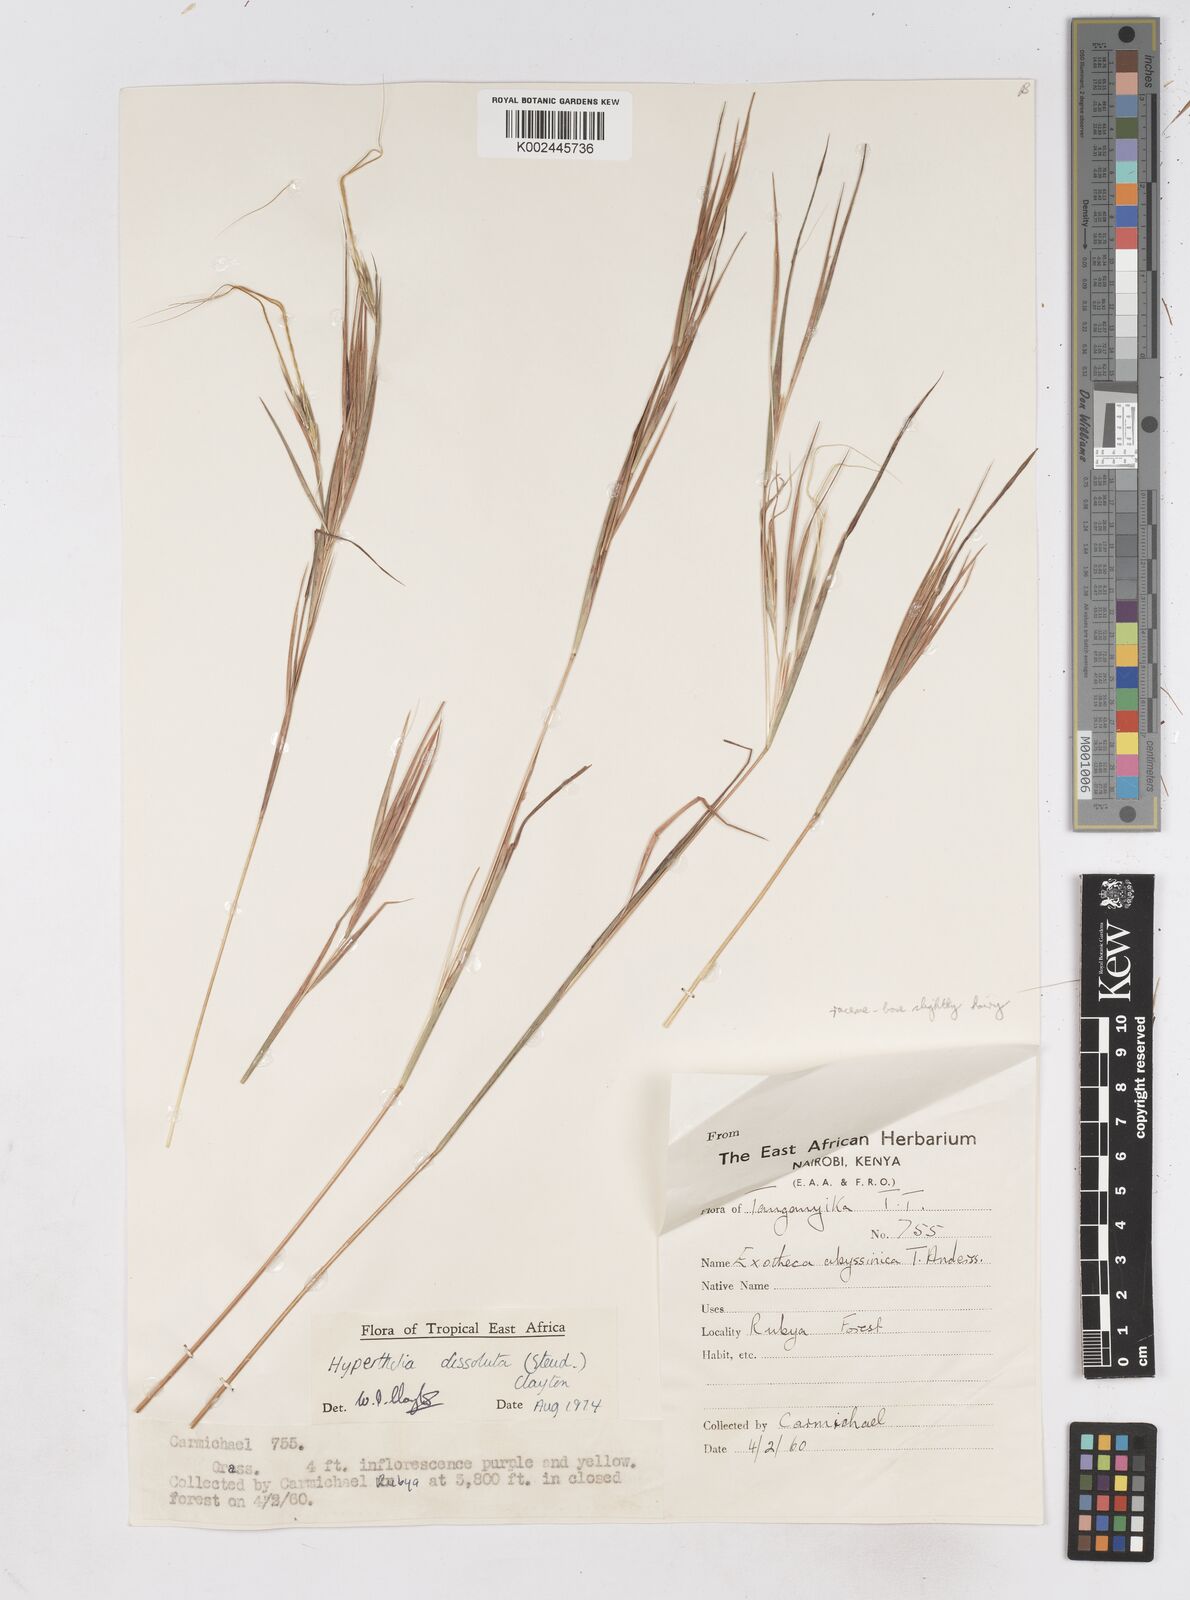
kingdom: Plantae
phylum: Tracheophyta
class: Liliopsida
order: Poales
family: Poaceae
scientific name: Poaceae
